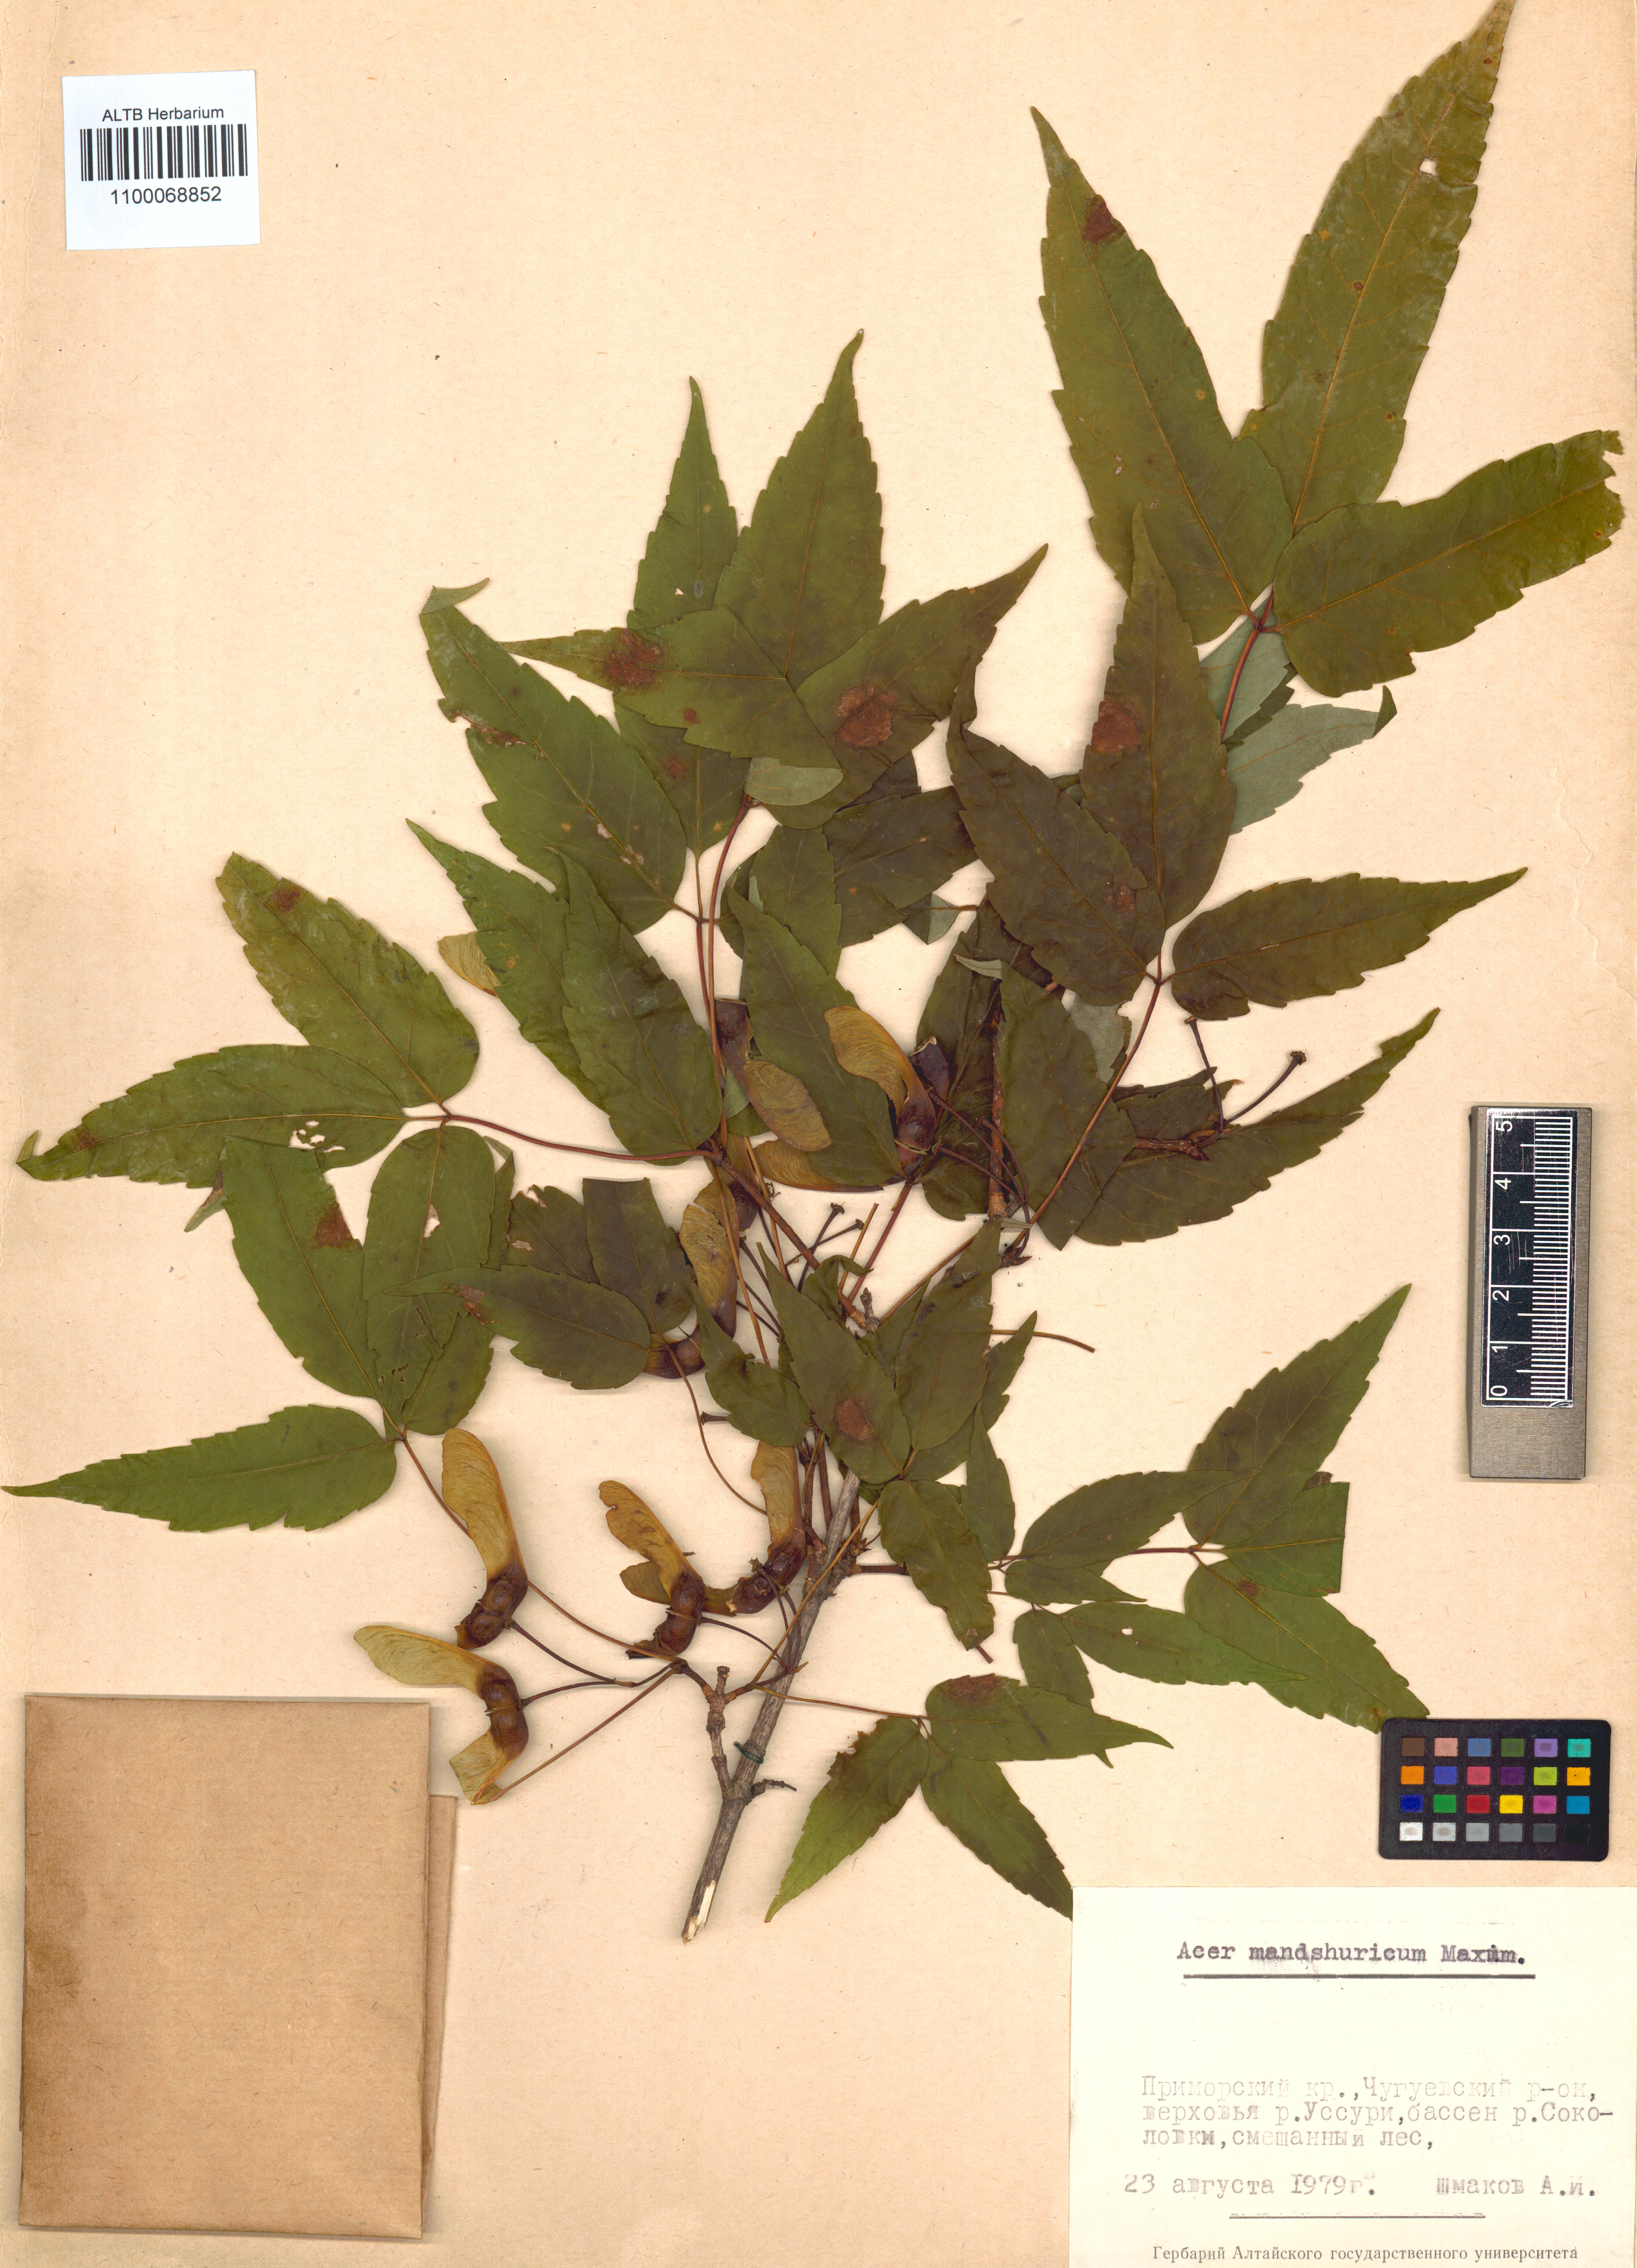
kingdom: Plantae
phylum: Tracheophyta
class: Magnoliopsida
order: Sapindales
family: Sapindaceae
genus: Acer
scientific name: Acer mandshuricum
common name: Manchurian maple
